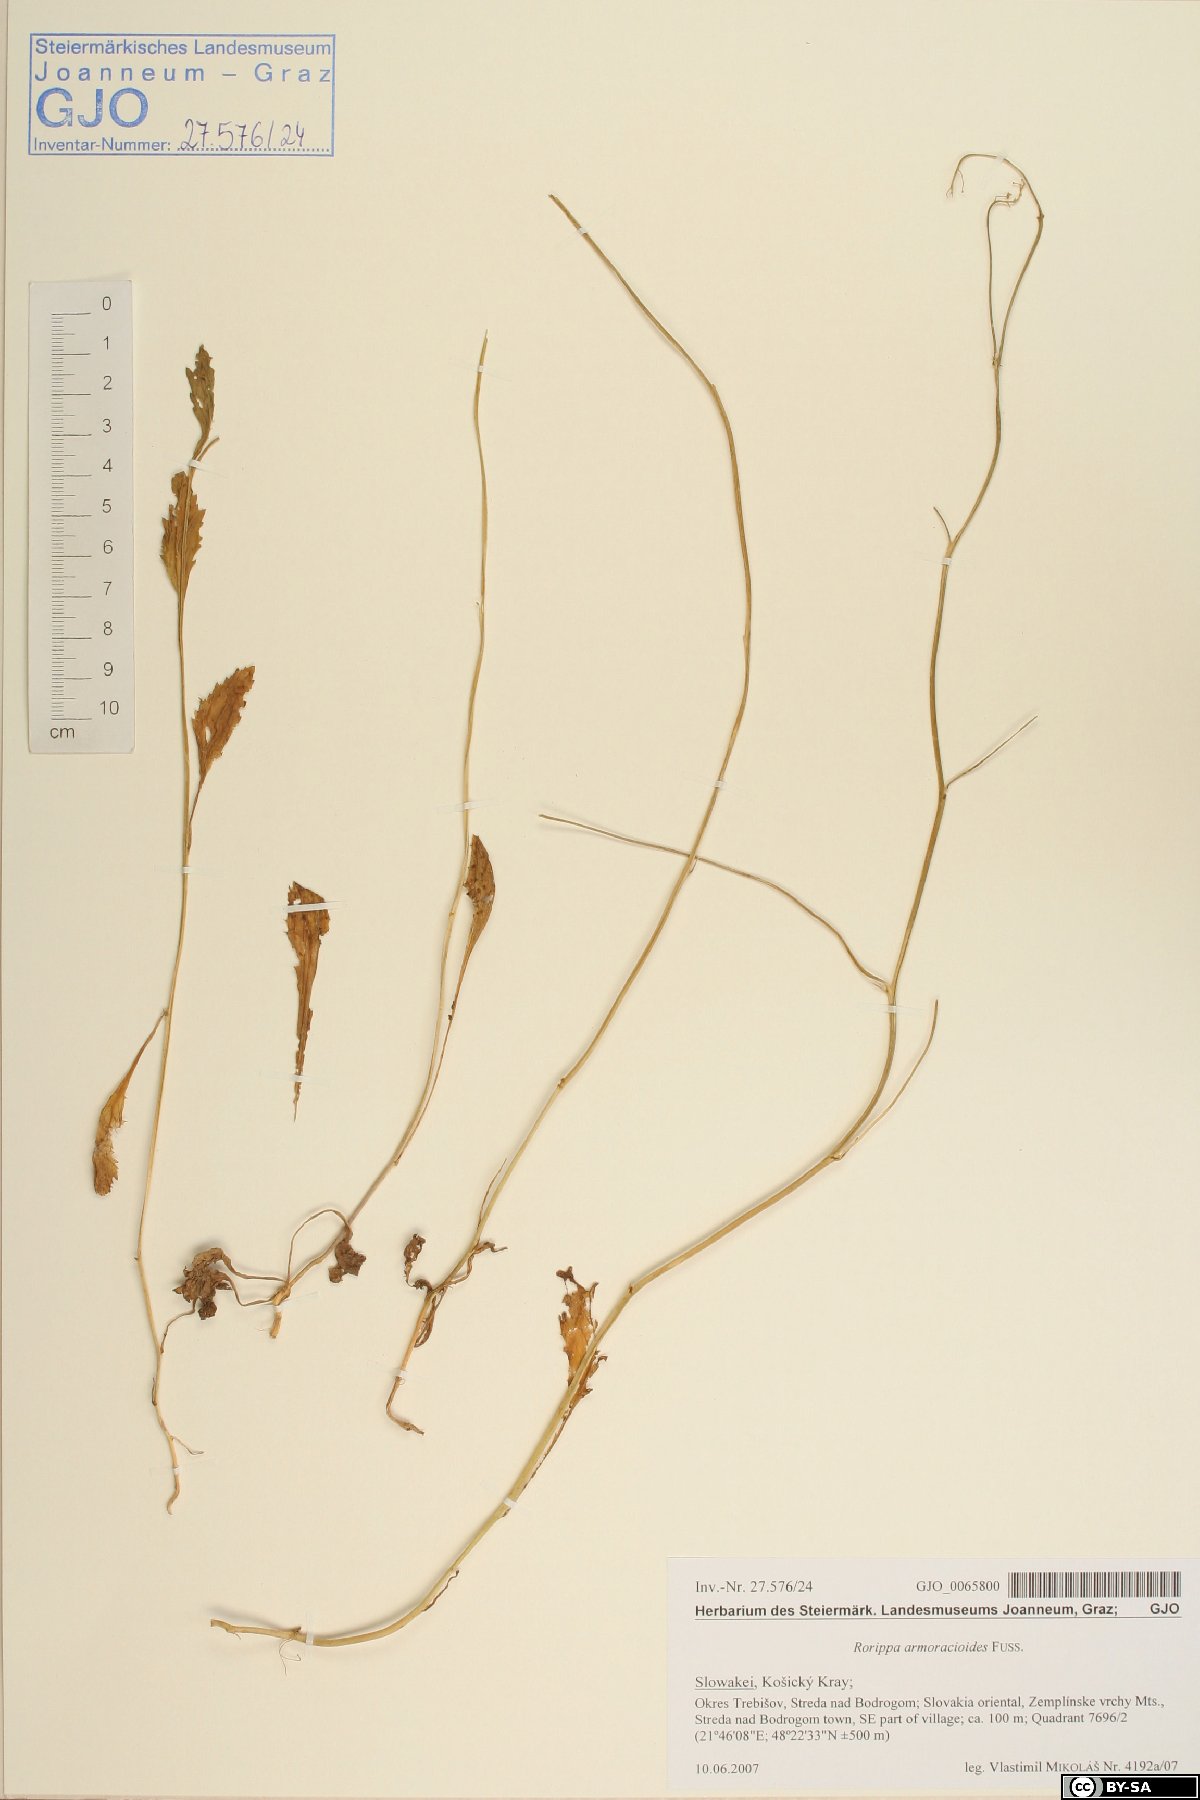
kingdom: Plantae
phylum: Tracheophyta
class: Magnoliopsida
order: Brassicales
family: Brassicaceae
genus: Rorippa
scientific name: Rorippa anceps
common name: Rorippa
